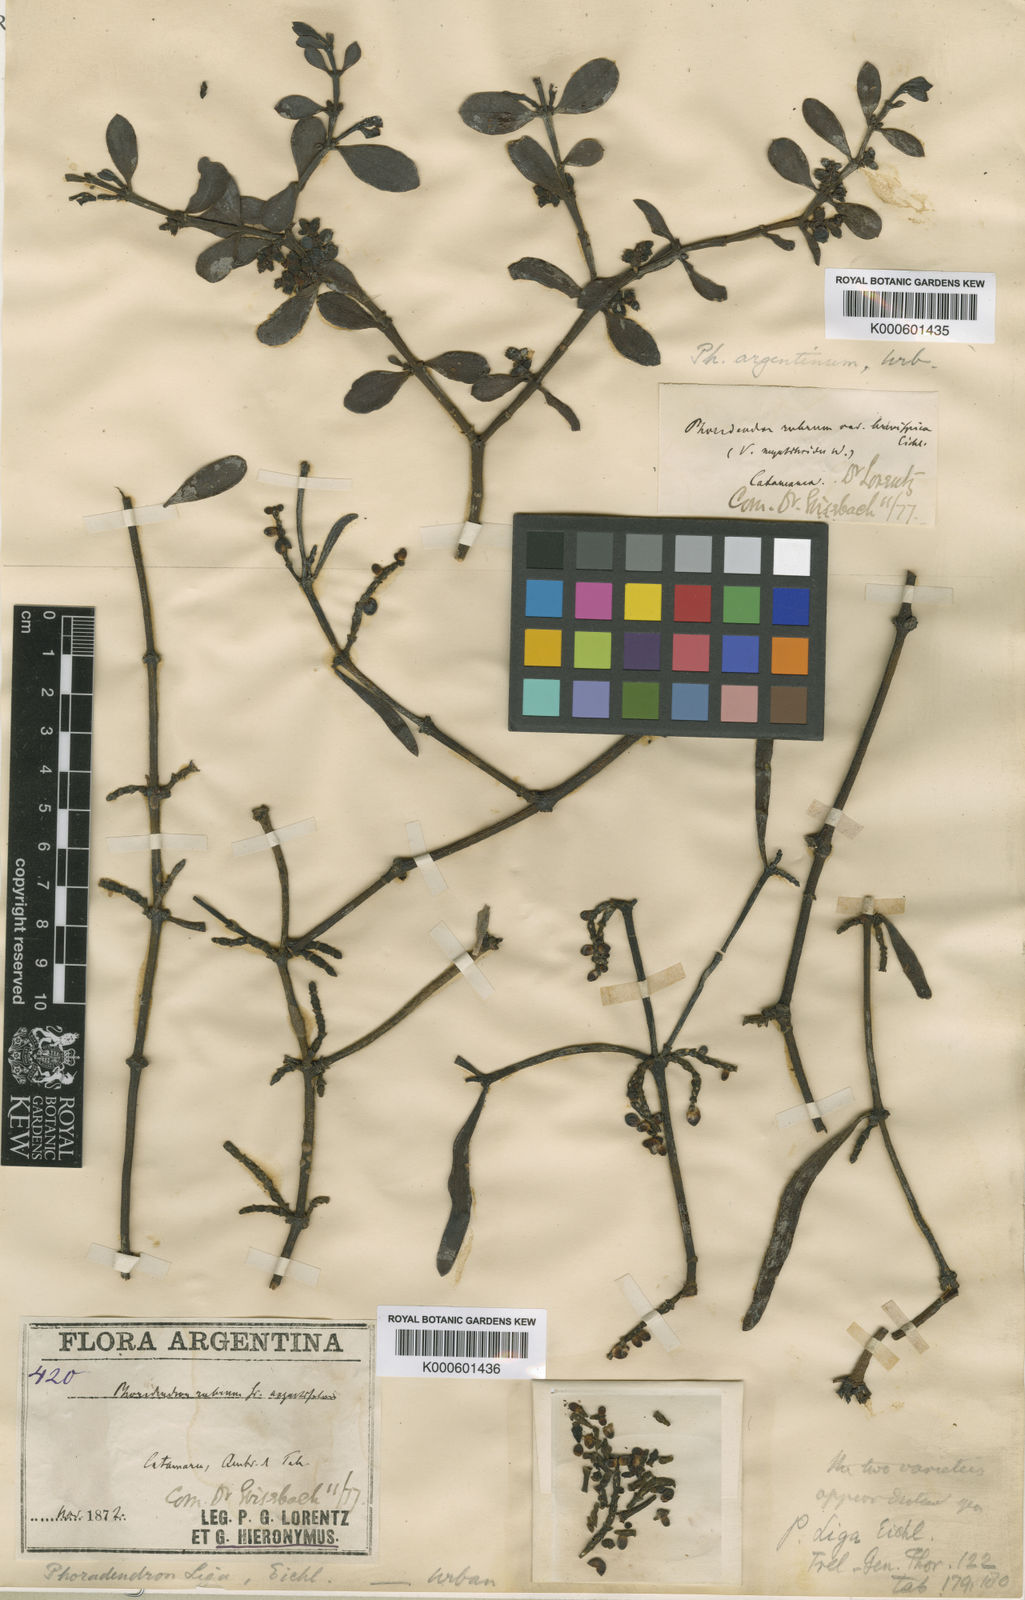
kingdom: Plantae
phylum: Tracheophyta
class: Magnoliopsida
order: Santalales
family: Viscaceae
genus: Phoradendron
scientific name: Phoradendron liga
